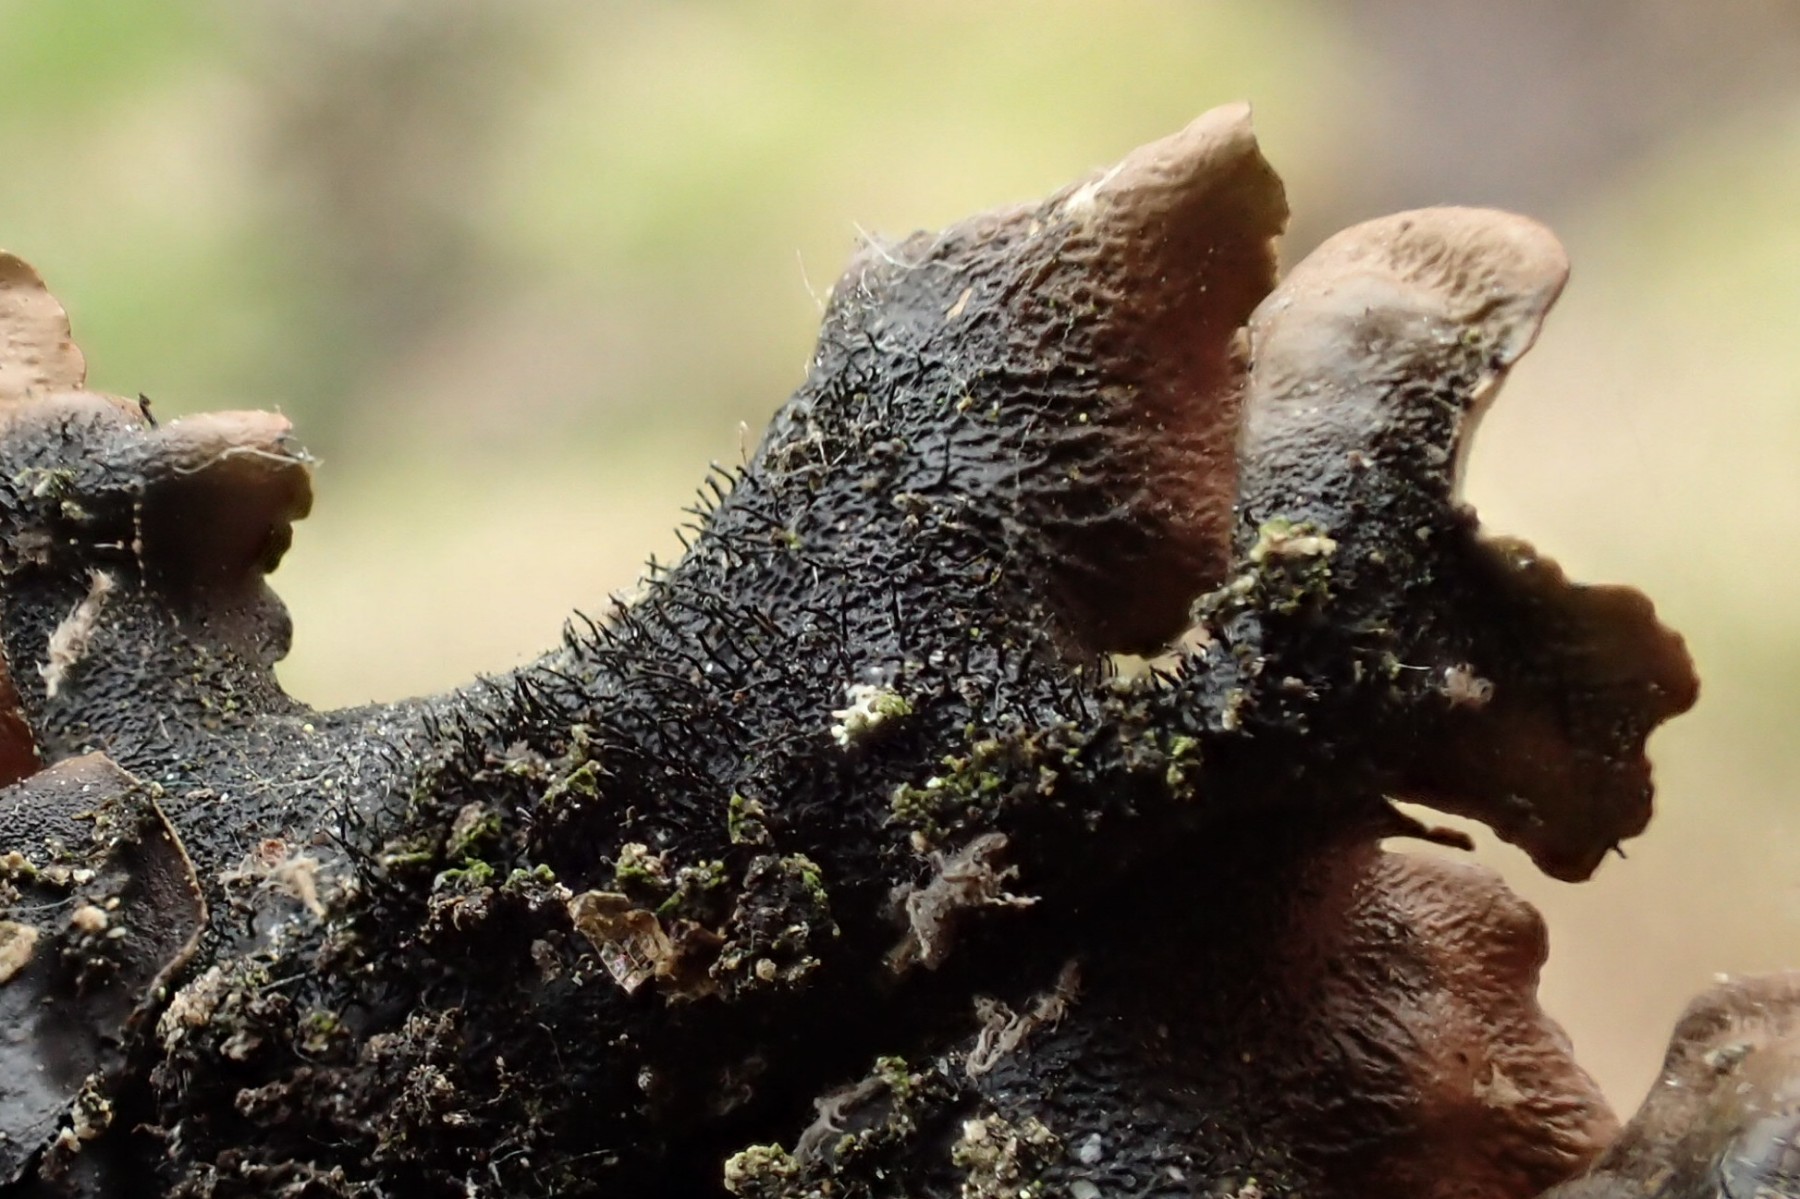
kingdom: Fungi
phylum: Ascomycota
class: Lecanoromycetes
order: Lecanorales
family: Parmeliaceae
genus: Parmotrema
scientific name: Parmotrema perlatum
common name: trådet skållav
